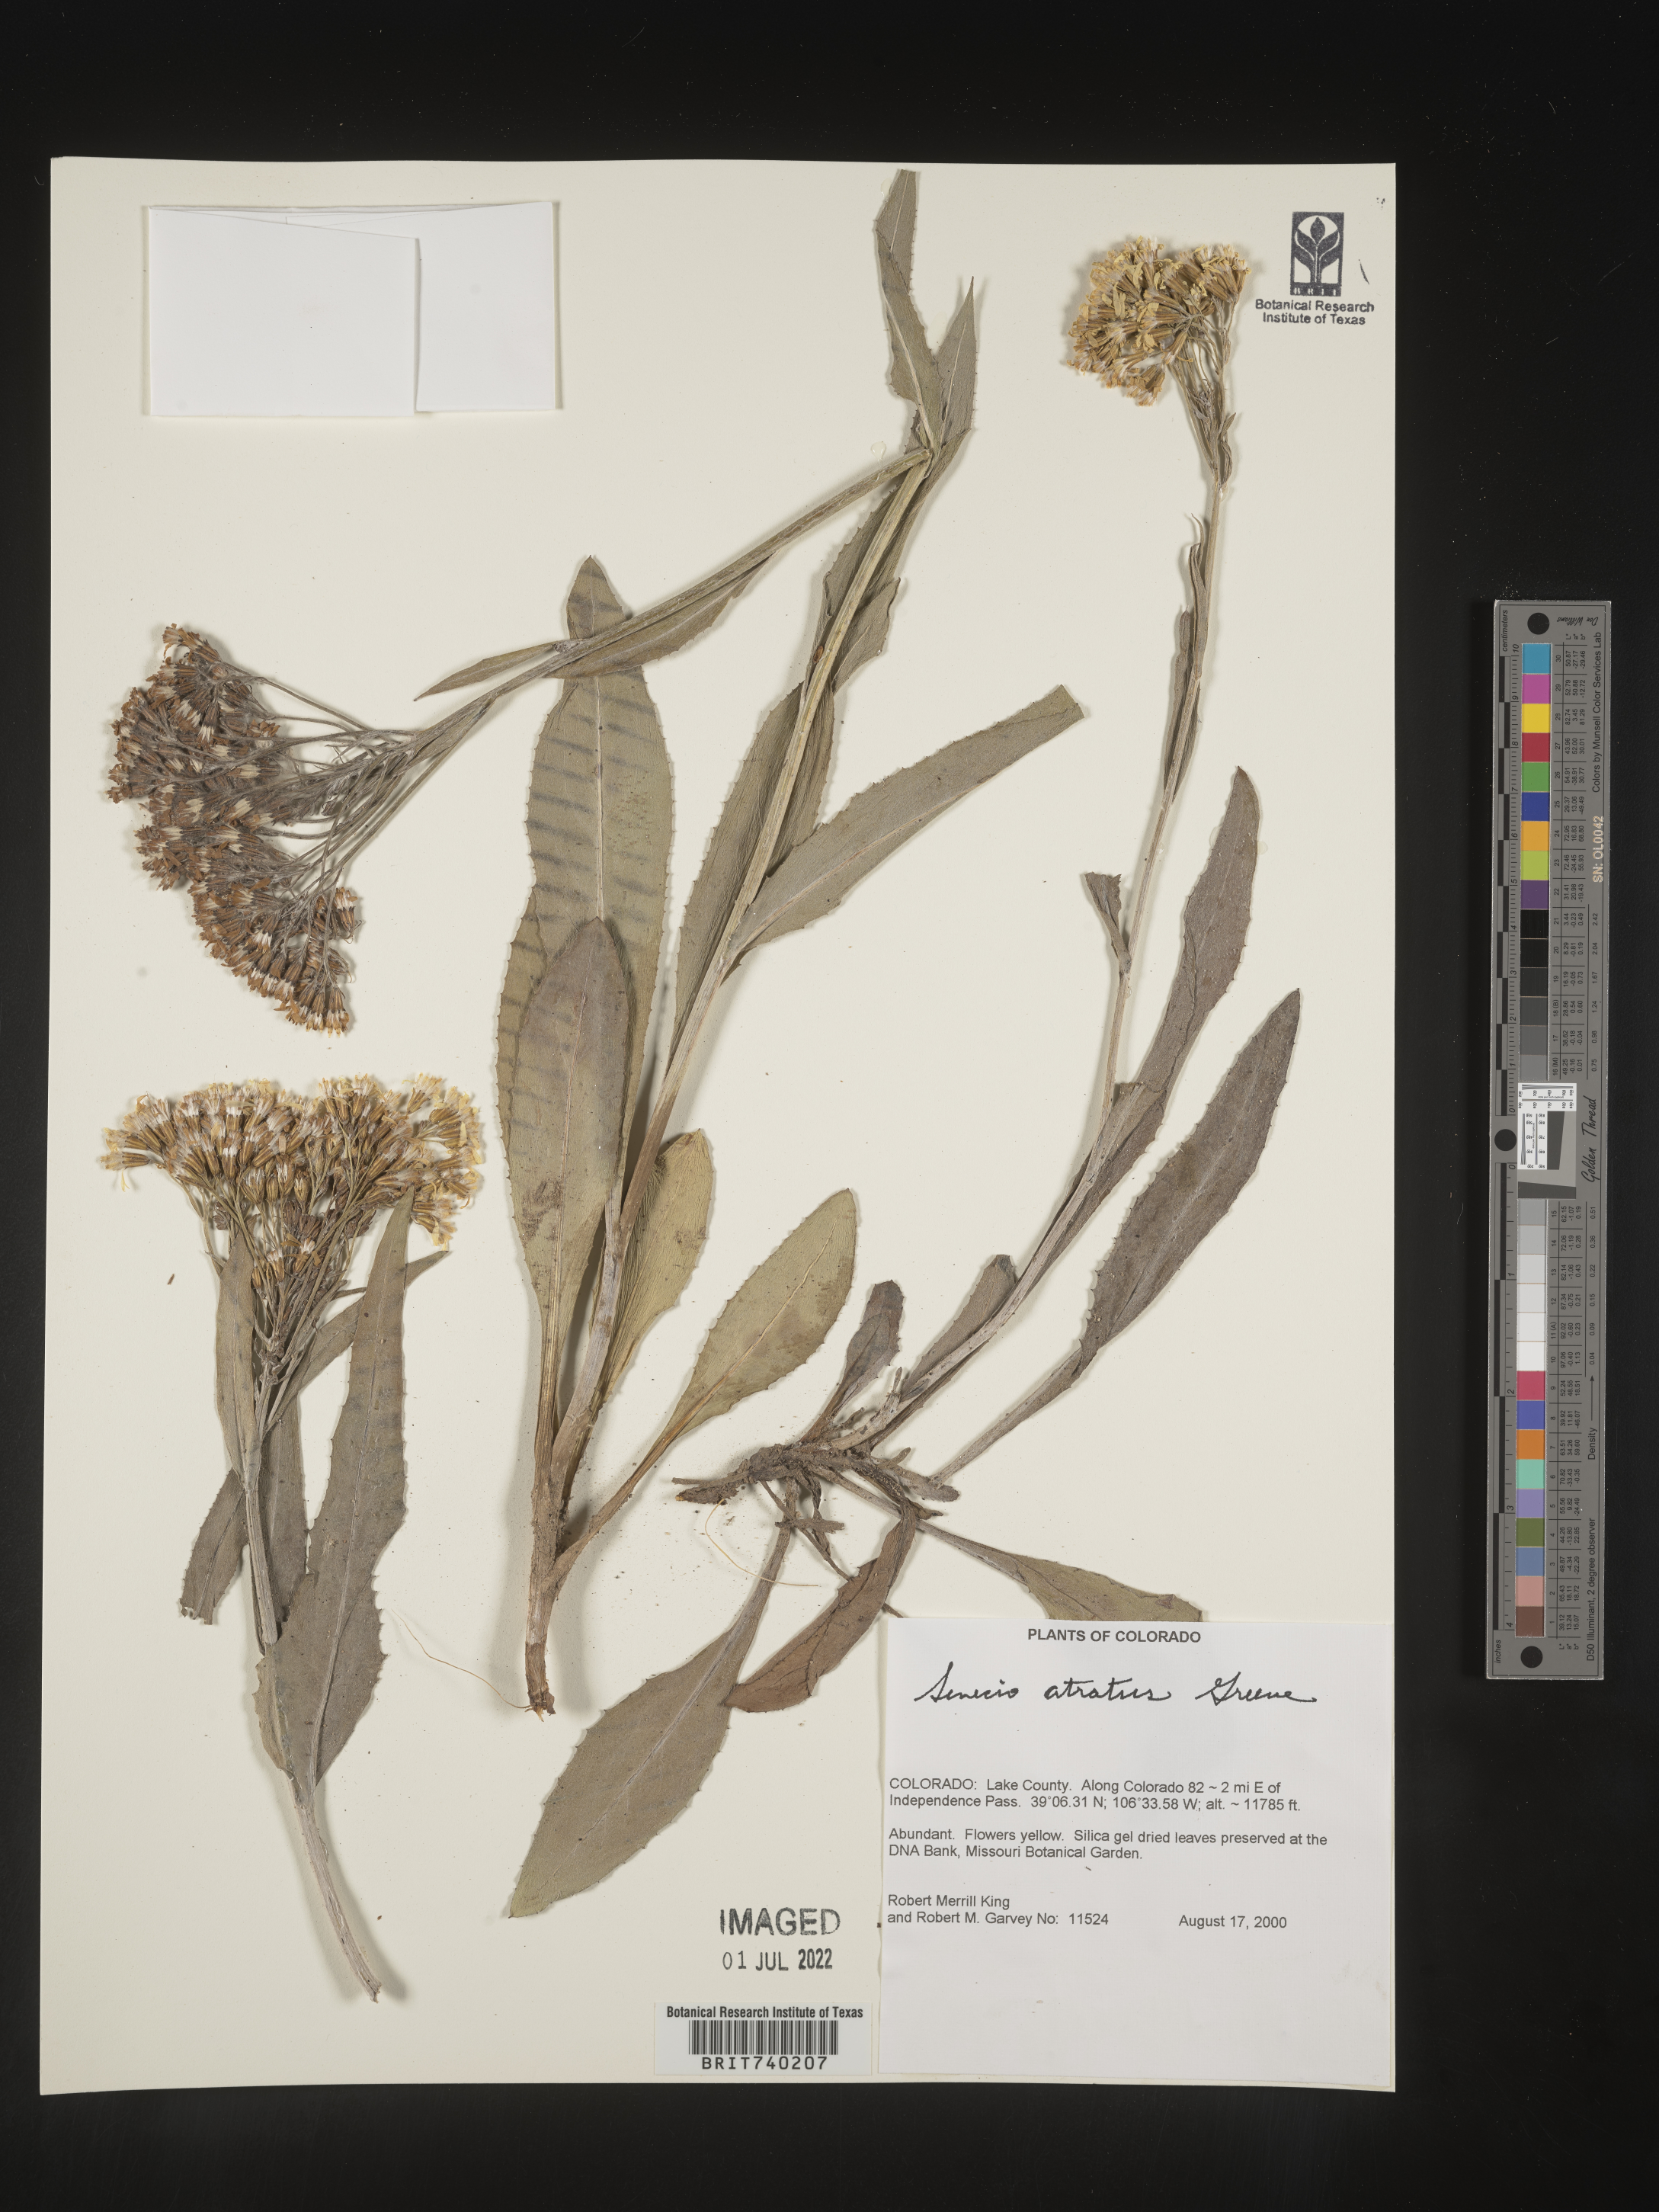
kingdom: Plantae
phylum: Tracheophyta
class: Magnoliopsida
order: Asterales
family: Asteraceae
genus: Senecio
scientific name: Senecio atratus
